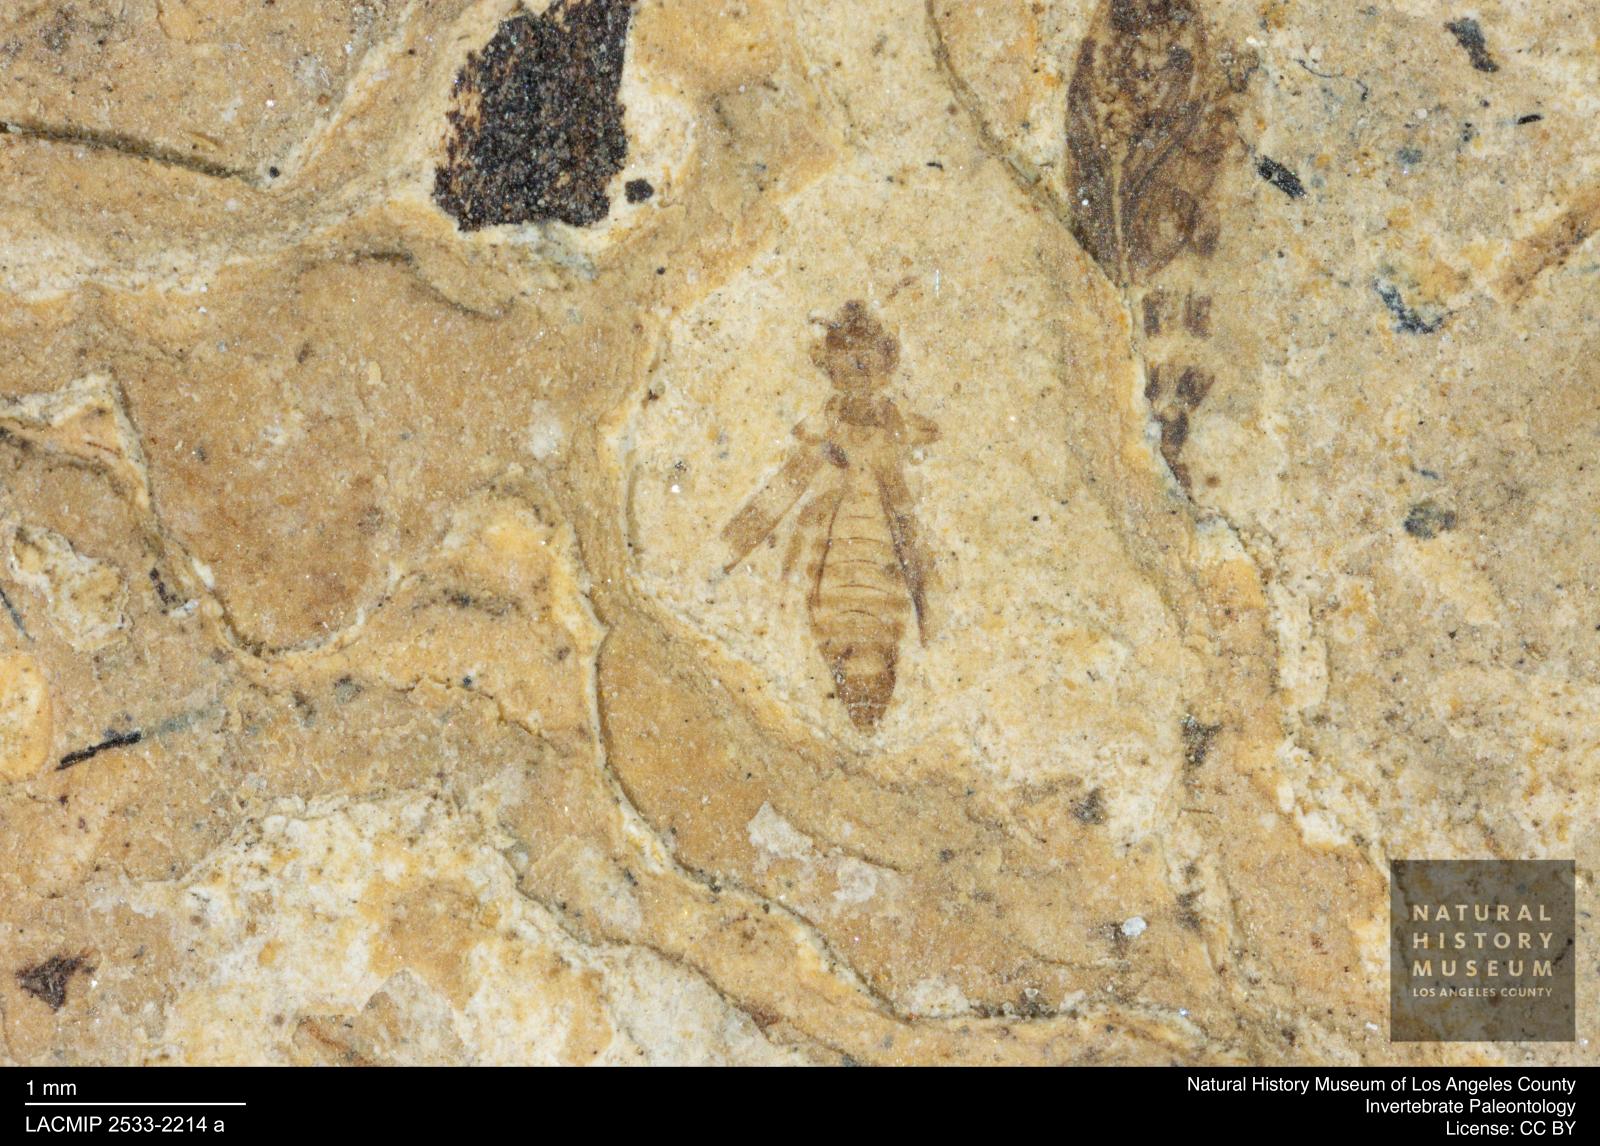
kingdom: Animalia
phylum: Arthropoda
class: Insecta
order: Thysanoptera
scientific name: Thysanoptera
